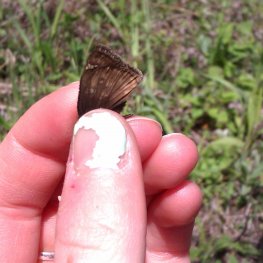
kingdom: Animalia
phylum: Arthropoda
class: Insecta
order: Lepidoptera
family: Hesperiidae
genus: Gesta
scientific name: Gesta
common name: Juvenal's Duskywing
